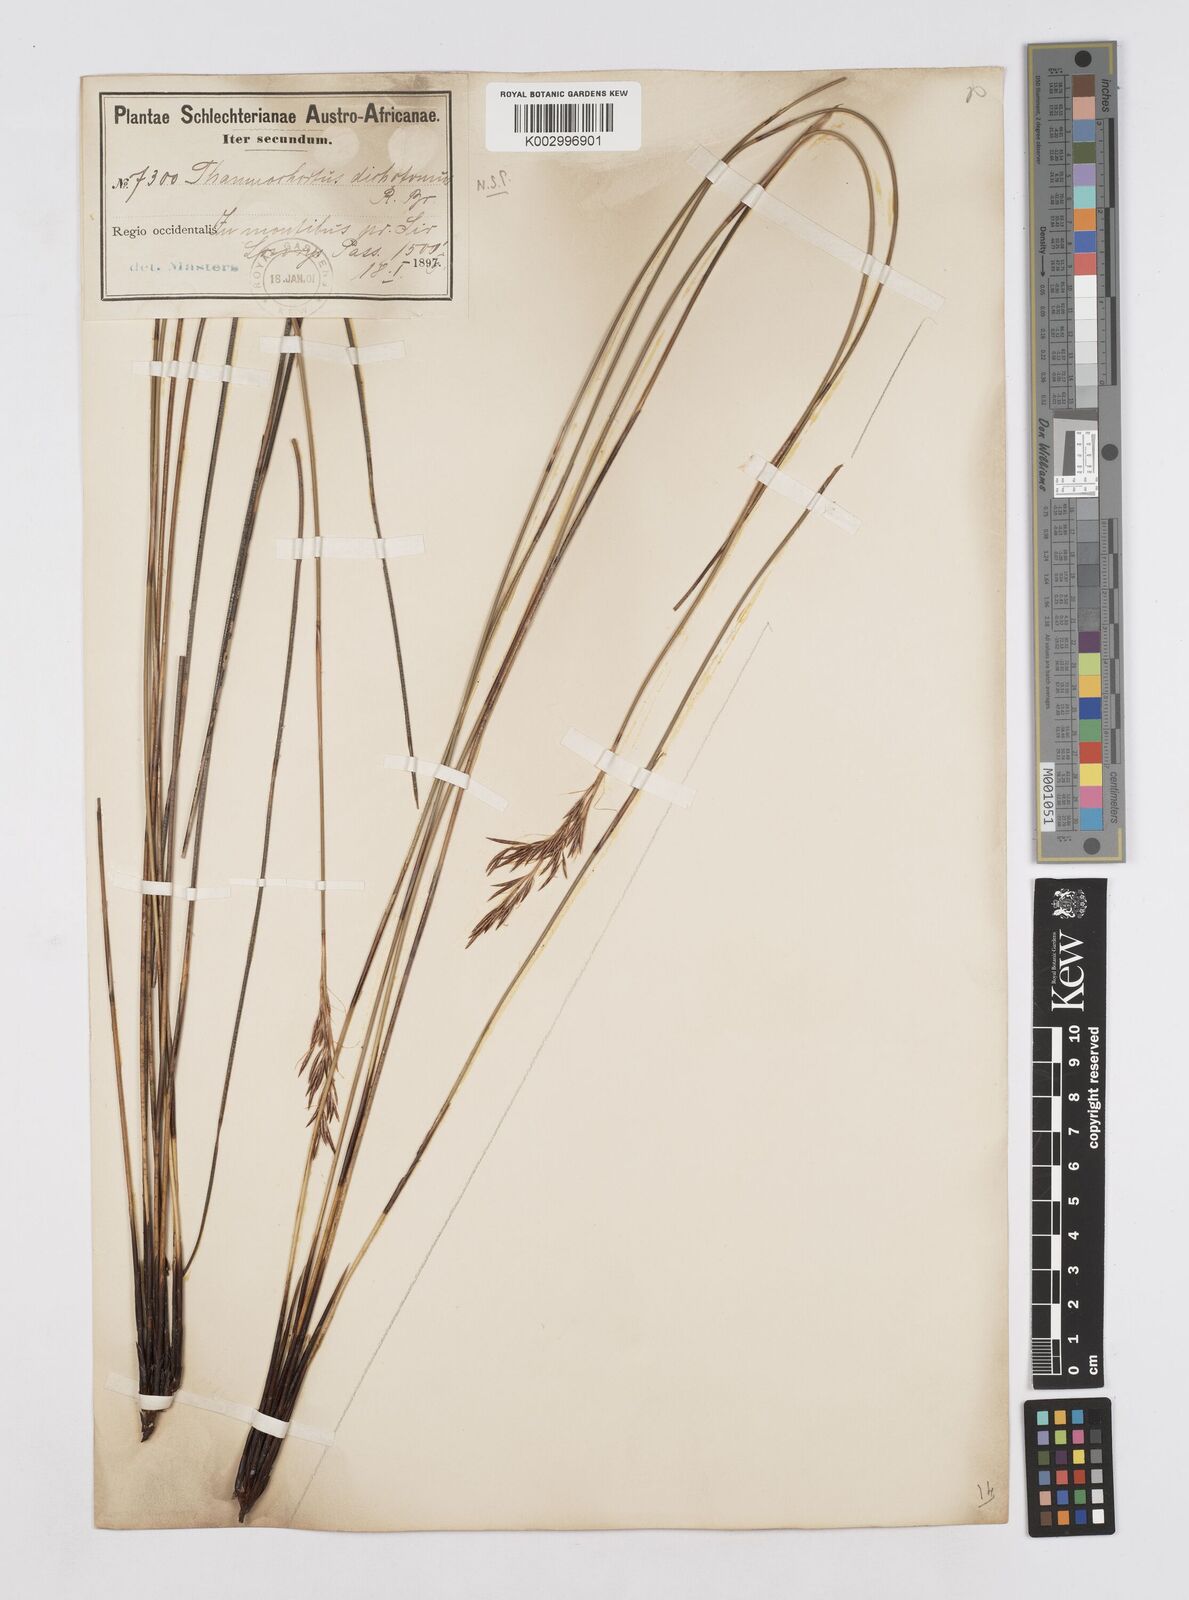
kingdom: Plantae
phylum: Tracheophyta
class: Liliopsida
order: Poales
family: Restionaceae
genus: Thamnochortus
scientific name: Thamnochortus lucens
